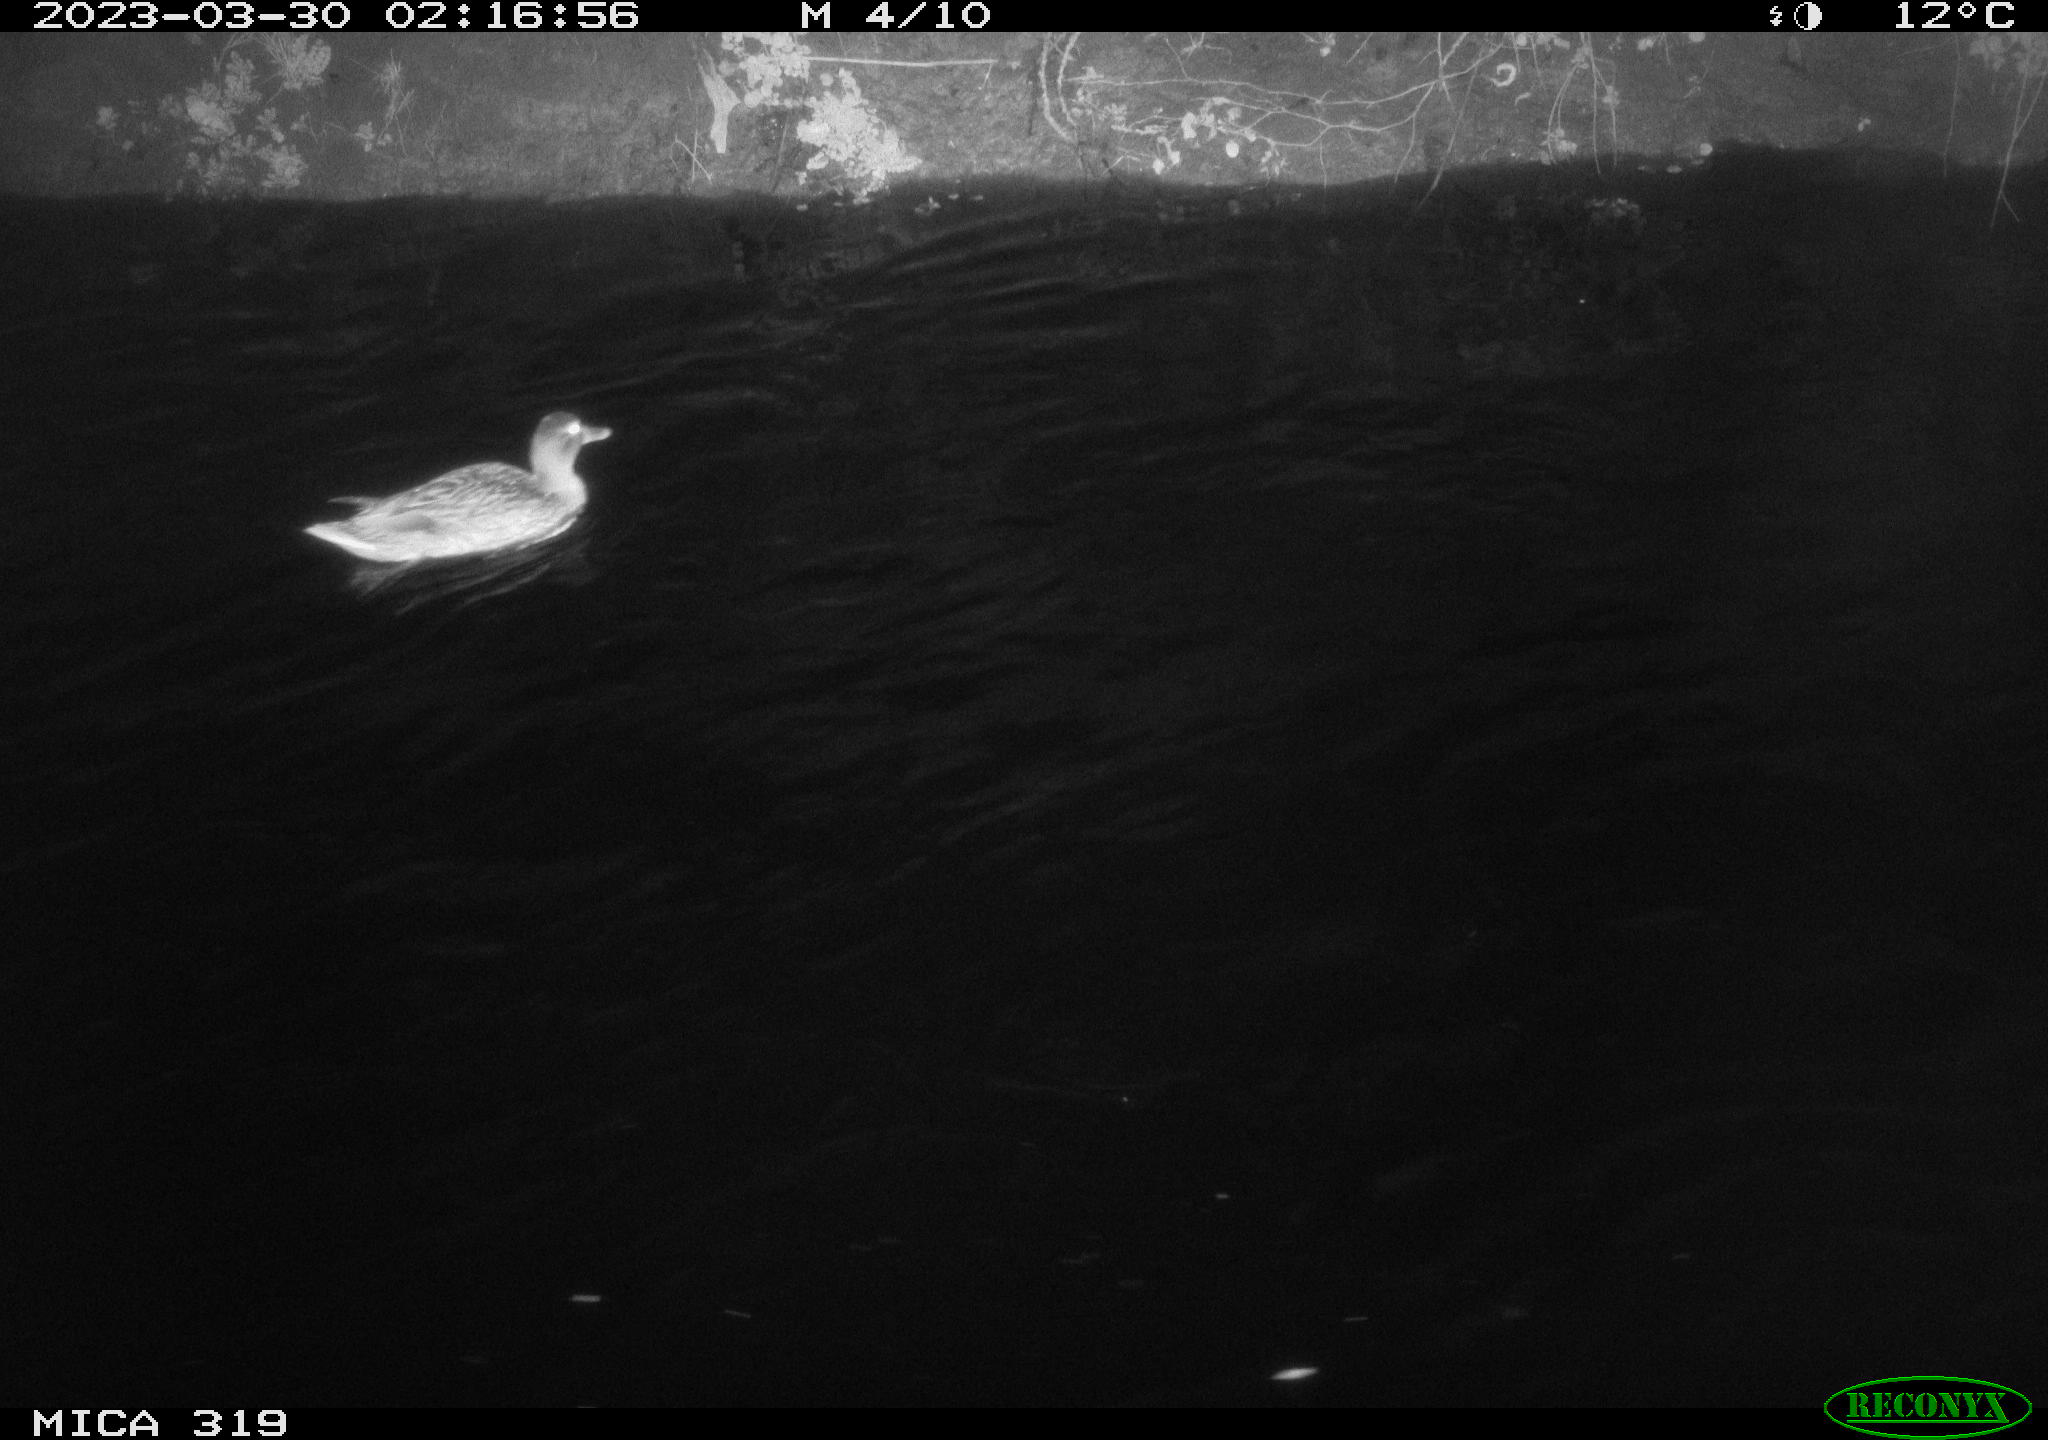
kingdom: Animalia
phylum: Chordata
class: Aves
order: Anseriformes
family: Anatidae
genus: Anas
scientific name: Anas
